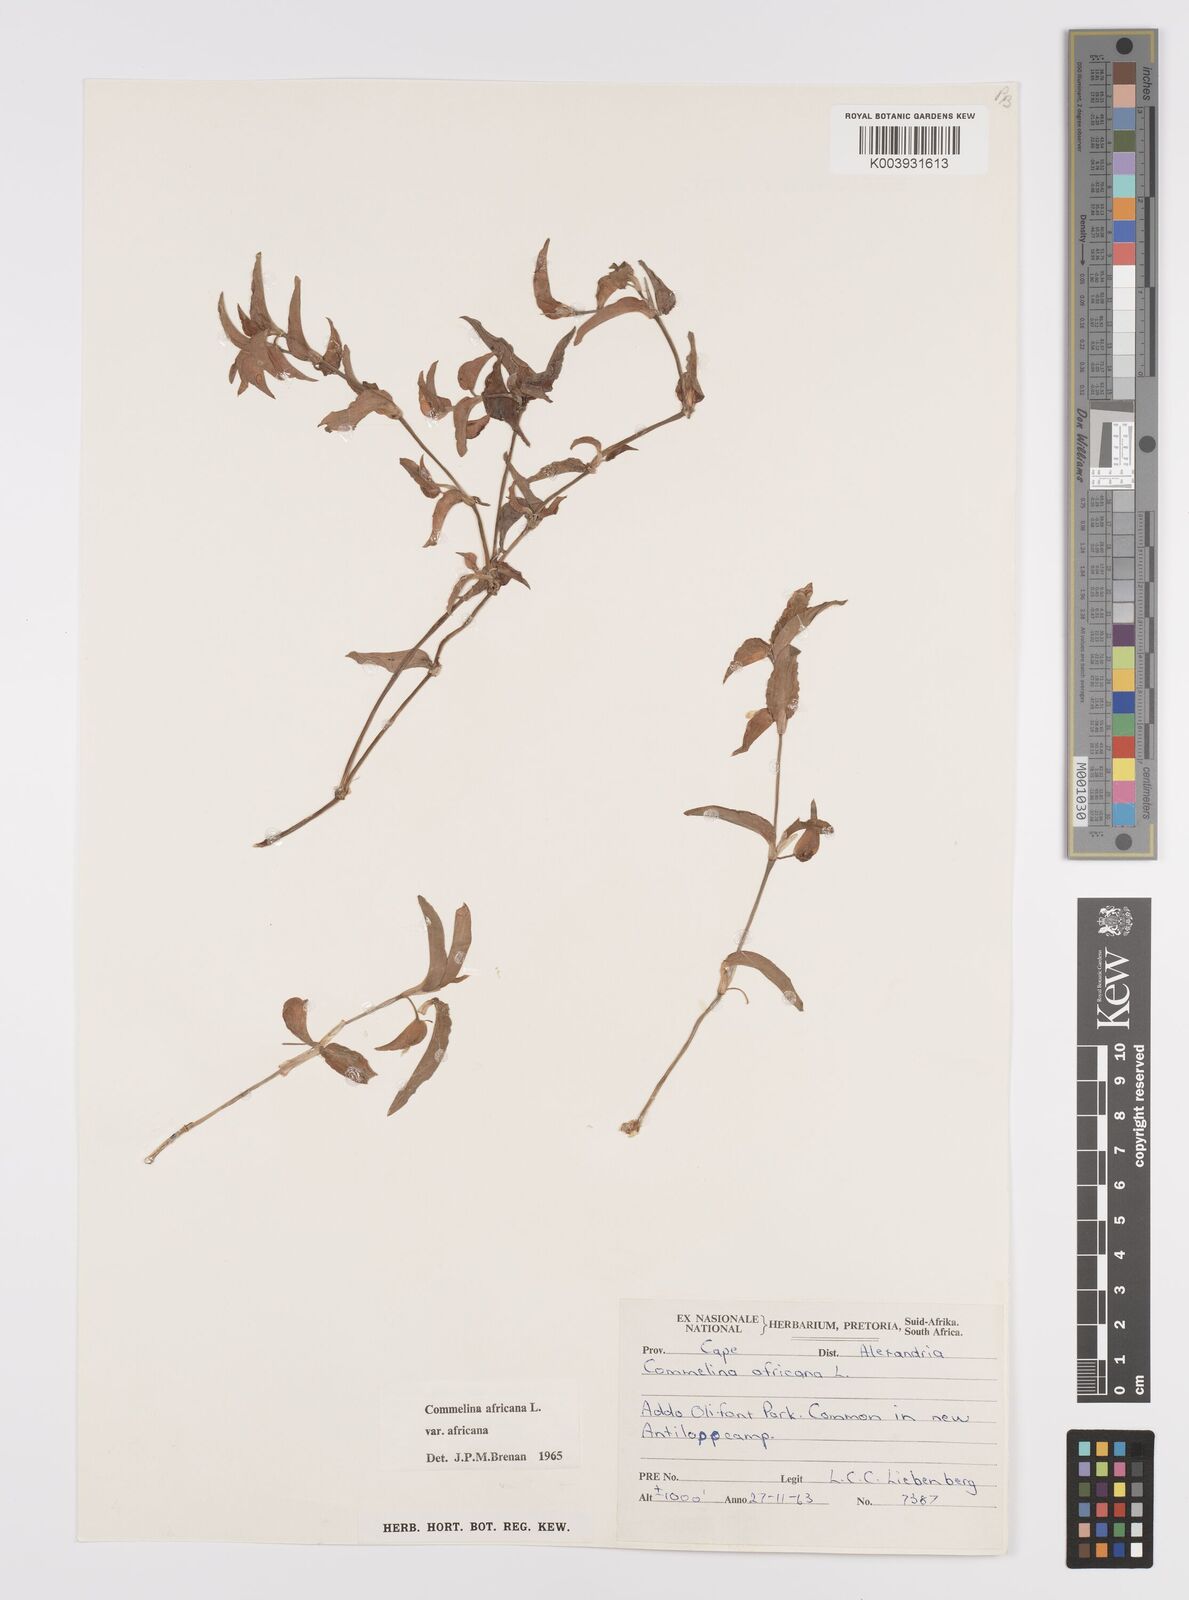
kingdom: Plantae
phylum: Tracheophyta
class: Liliopsida
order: Commelinales
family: Commelinaceae
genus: Commelina
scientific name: Commelina africana
